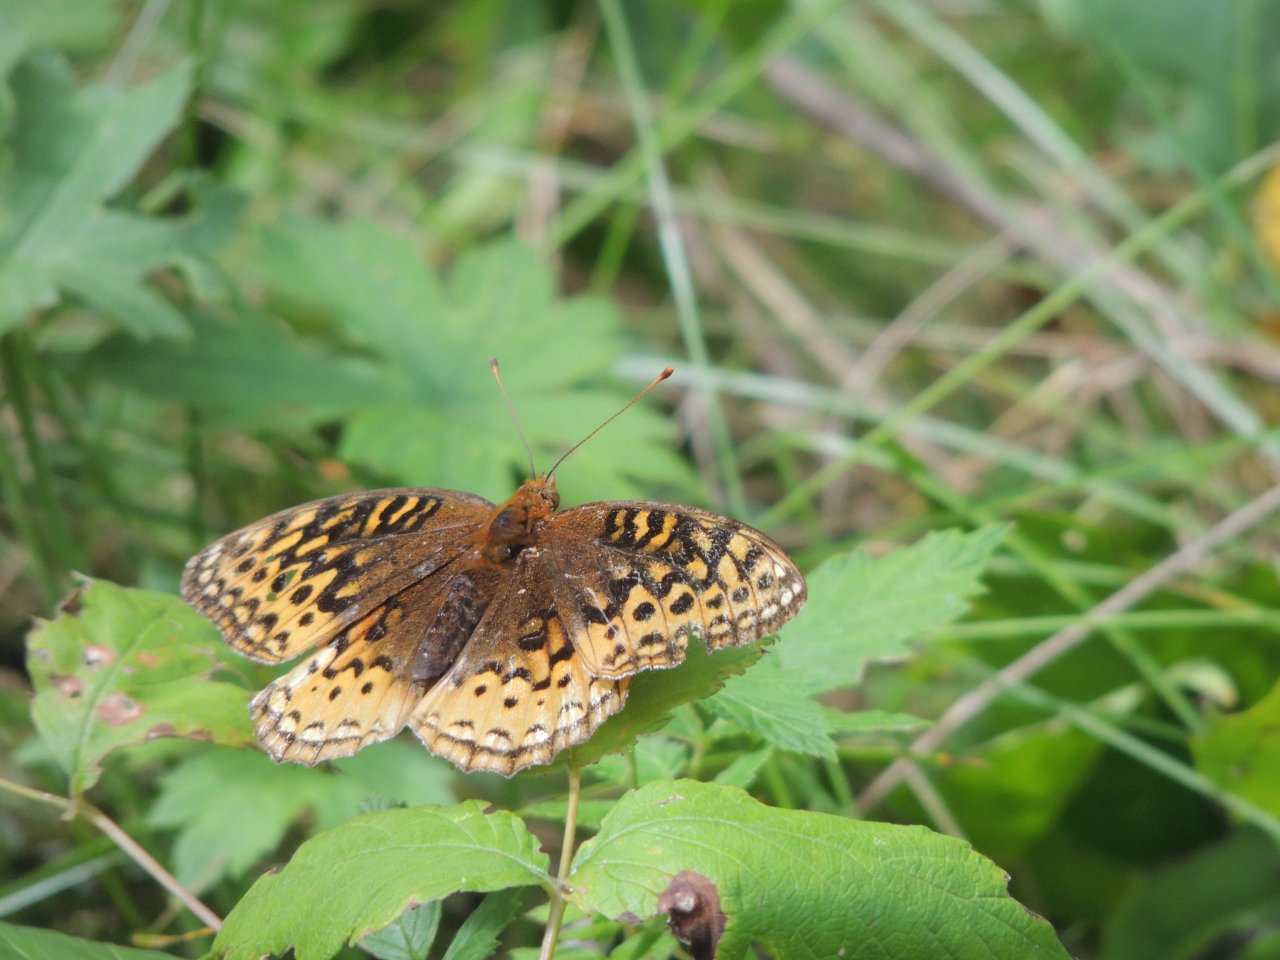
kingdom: Animalia
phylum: Arthropoda
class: Insecta
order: Lepidoptera
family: Nymphalidae
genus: Speyeria
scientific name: Speyeria cybele
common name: Great Spangled Fritillary
